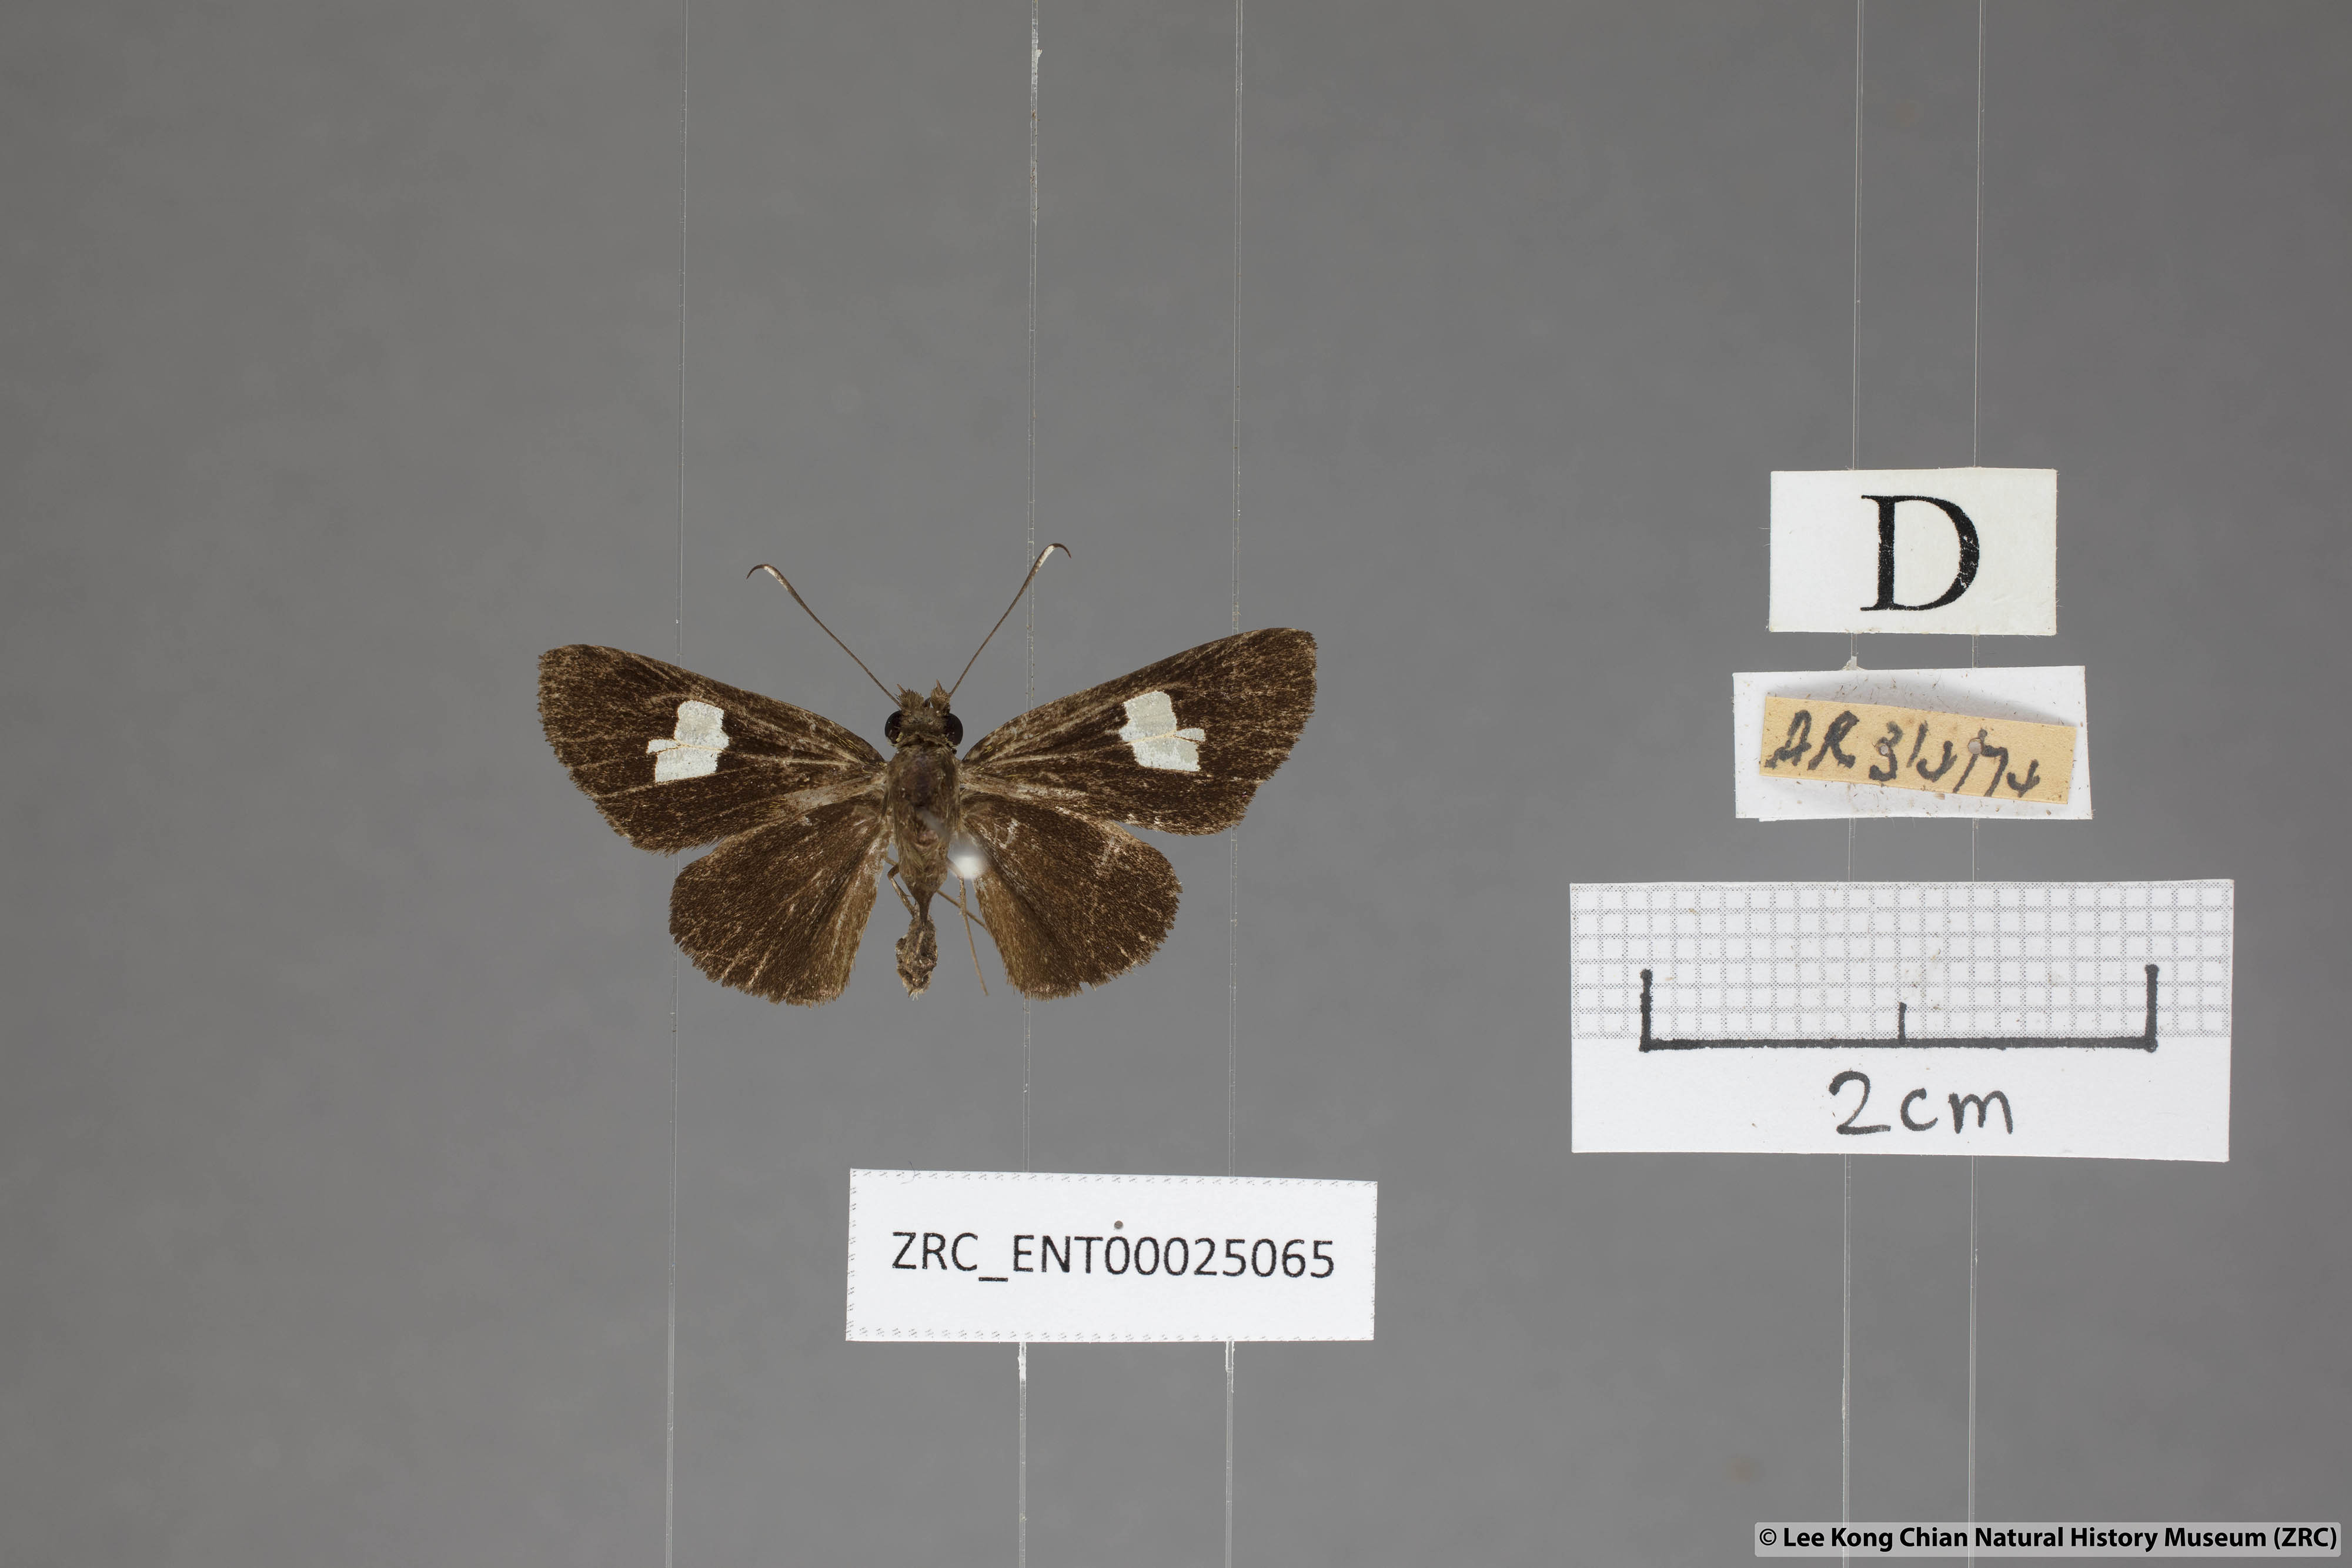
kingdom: Animalia
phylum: Arthropoda
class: Insecta
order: Lepidoptera
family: Hesperiidae
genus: Oerane
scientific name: Oerane microthyrus
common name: White club flitter
